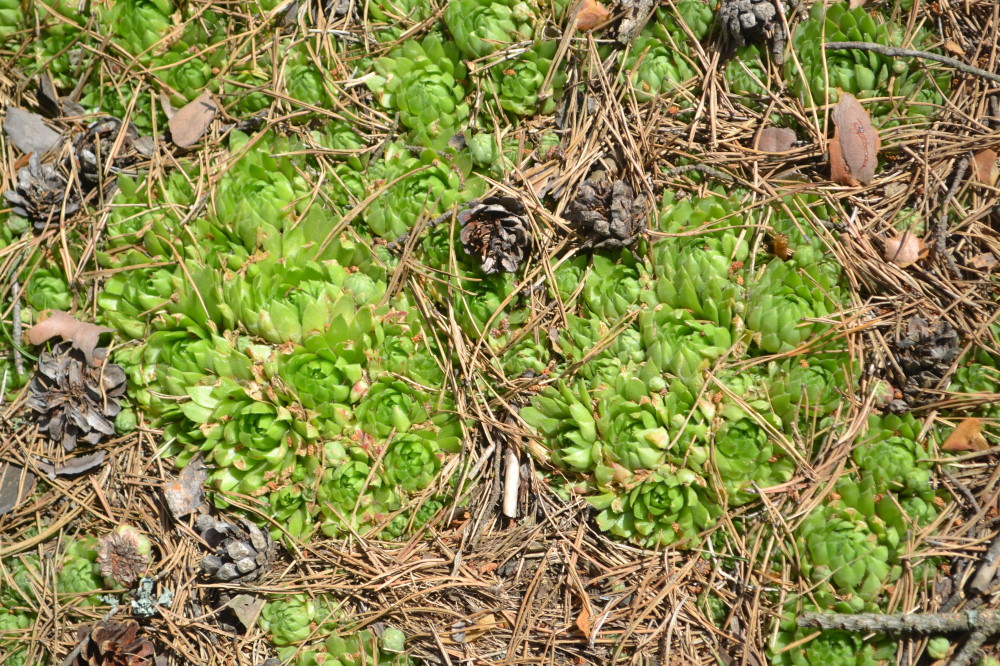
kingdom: Plantae
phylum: Tracheophyta
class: Magnoliopsida
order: Saxifragales
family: Crassulaceae
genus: Sempervivum
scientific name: Sempervivum globiferum
